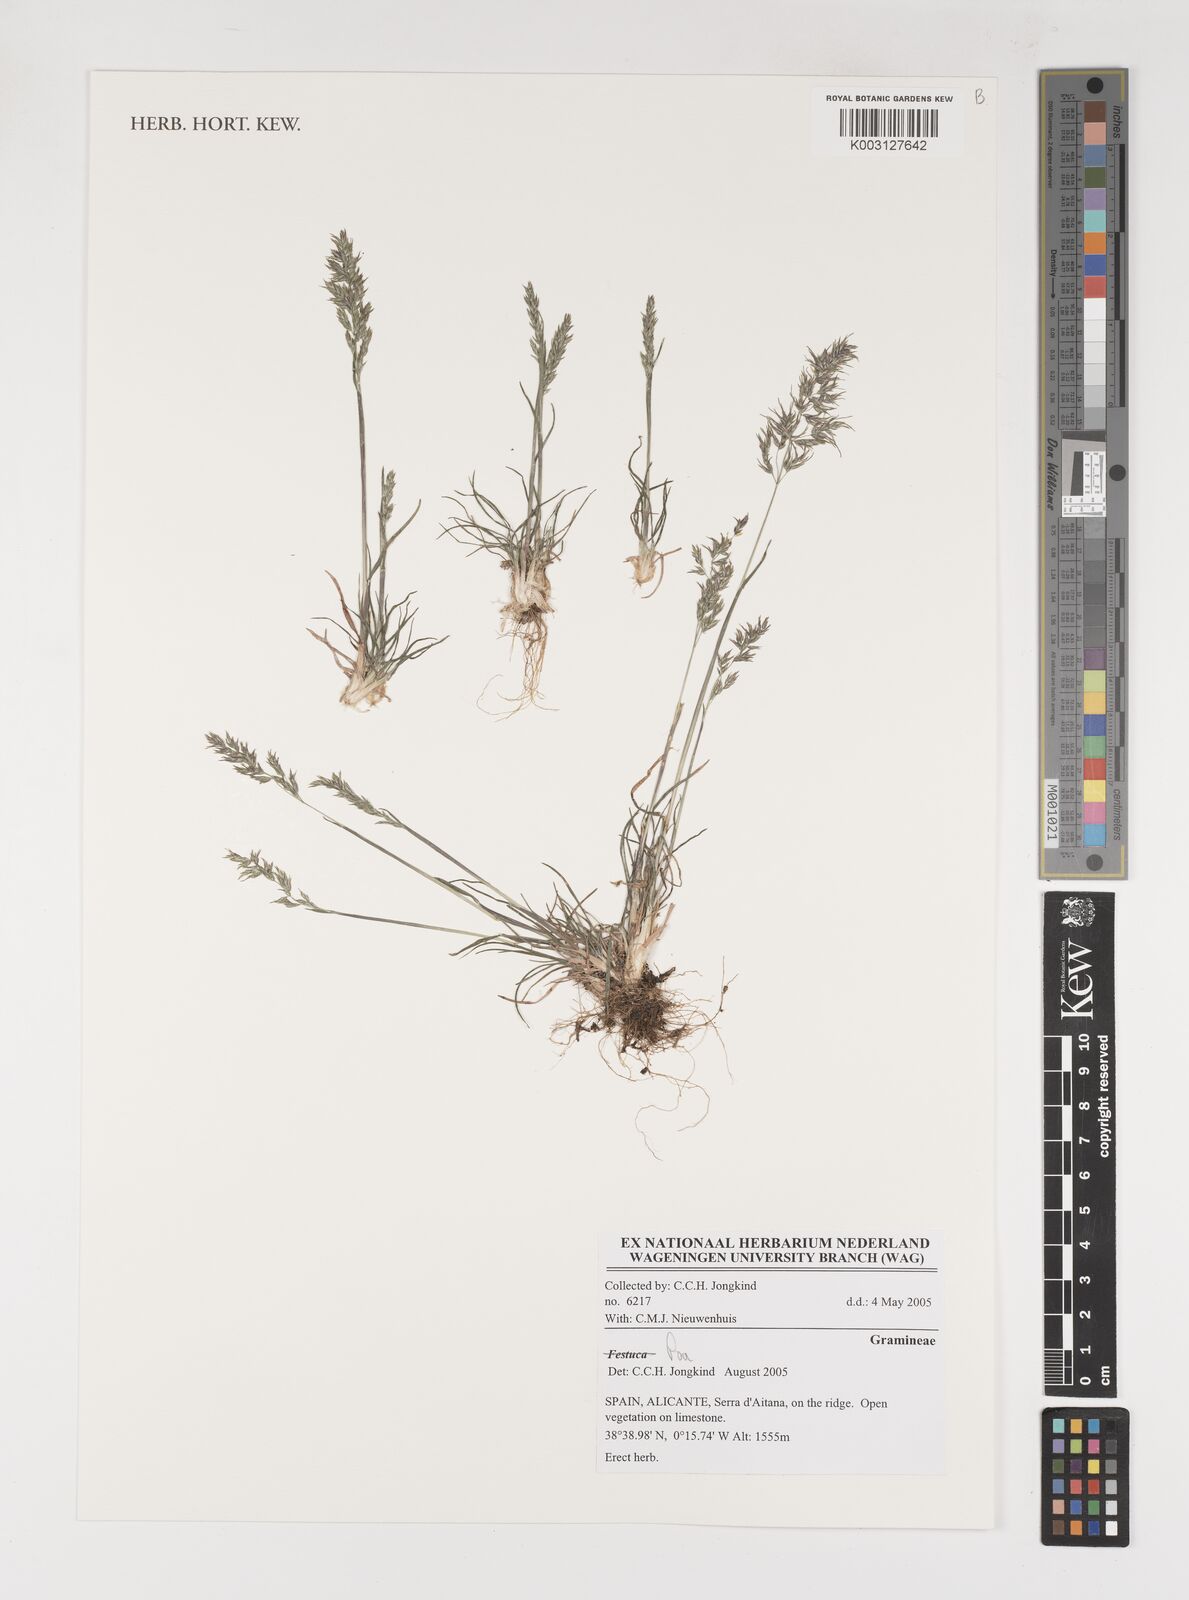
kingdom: Plantae
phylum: Tracheophyta
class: Liliopsida
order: Poales
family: Poaceae
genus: Poa
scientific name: Poa
